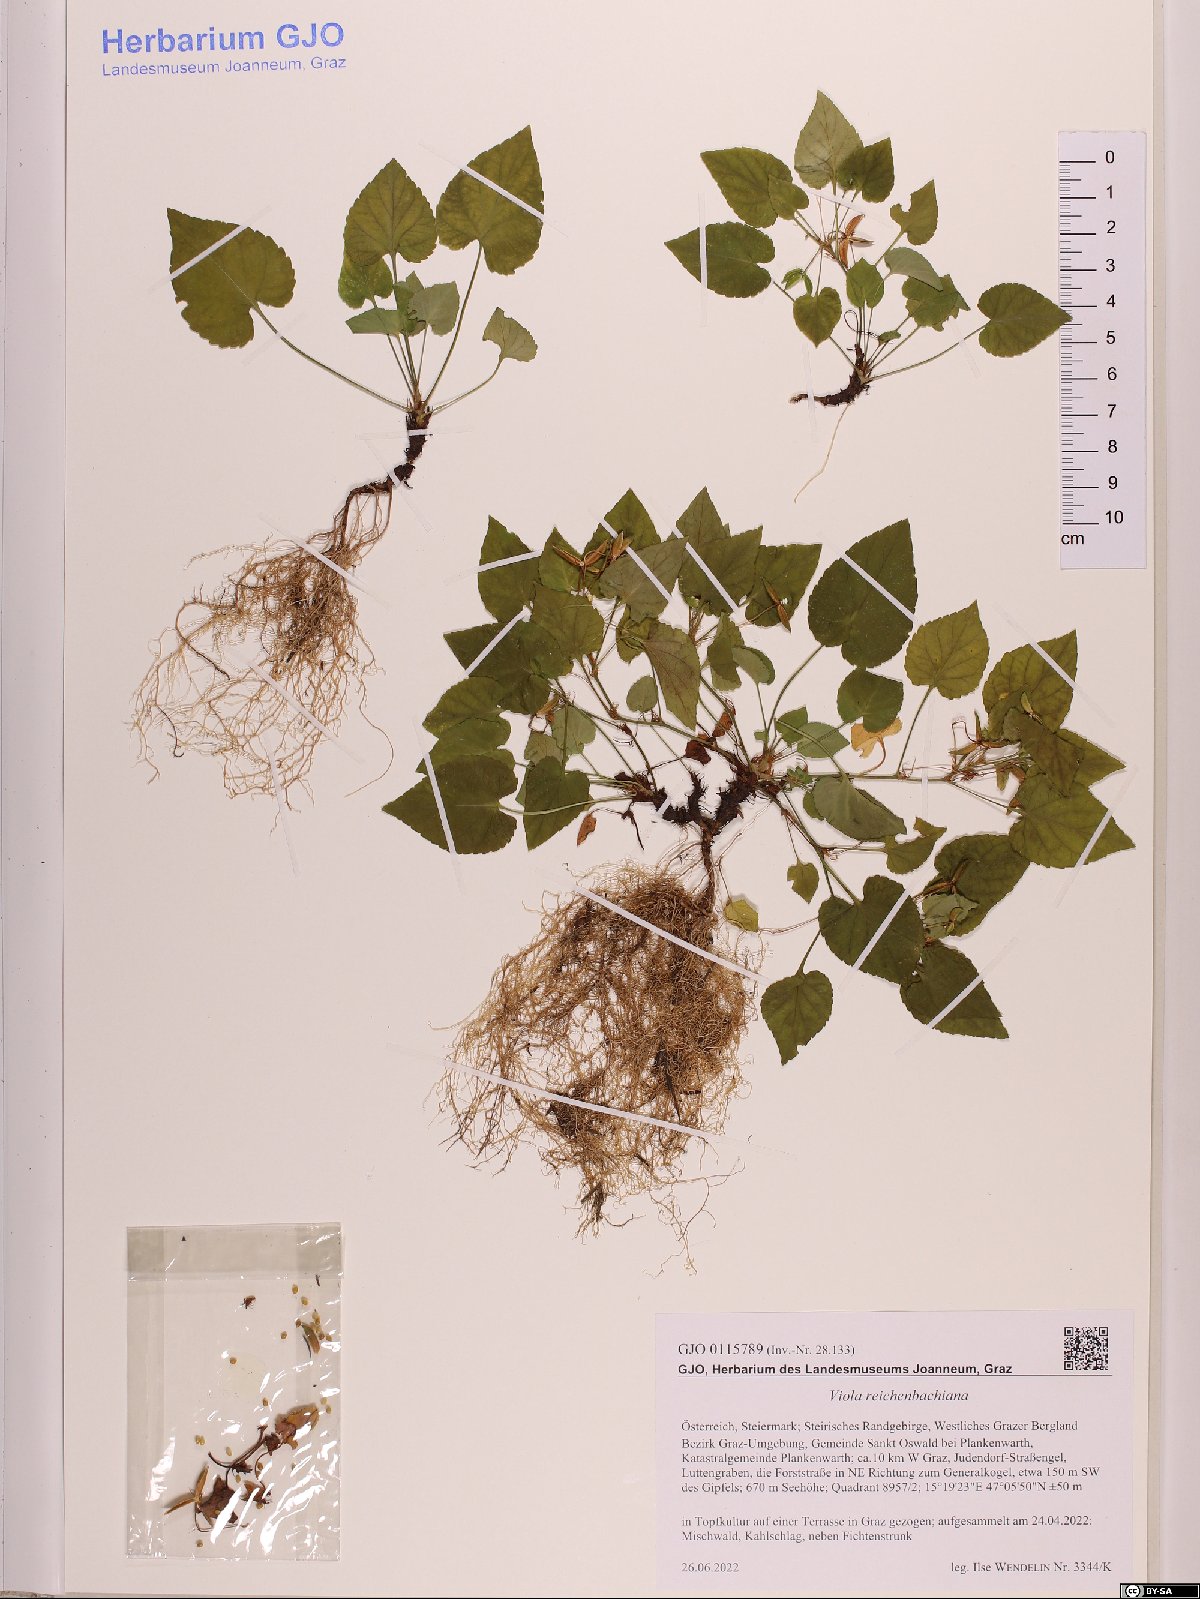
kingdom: Plantae
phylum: Tracheophyta
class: Magnoliopsida
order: Malpighiales
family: Violaceae
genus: Viola
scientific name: Viola reichenbachiana
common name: Early dog-violet
